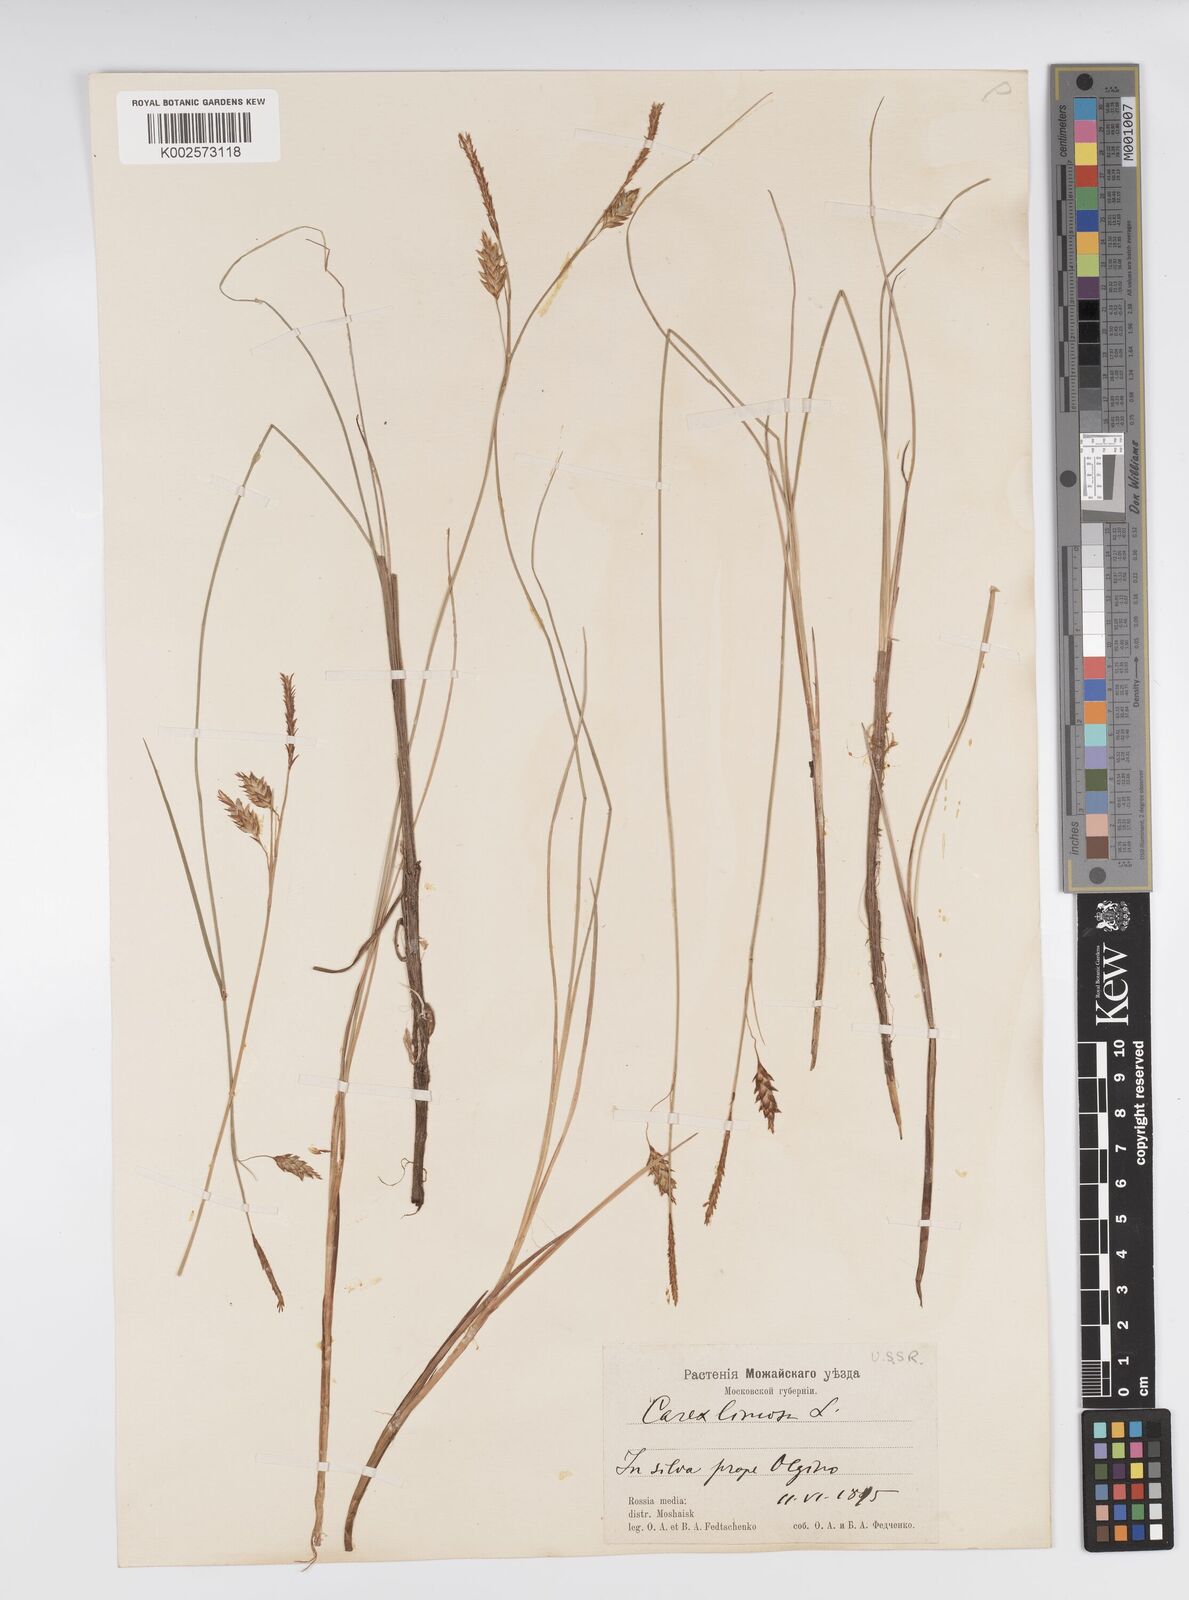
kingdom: Plantae
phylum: Tracheophyta
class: Liliopsida
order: Poales
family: Cyperaceae
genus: Carex
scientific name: Carex limosa
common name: Bog sedge
